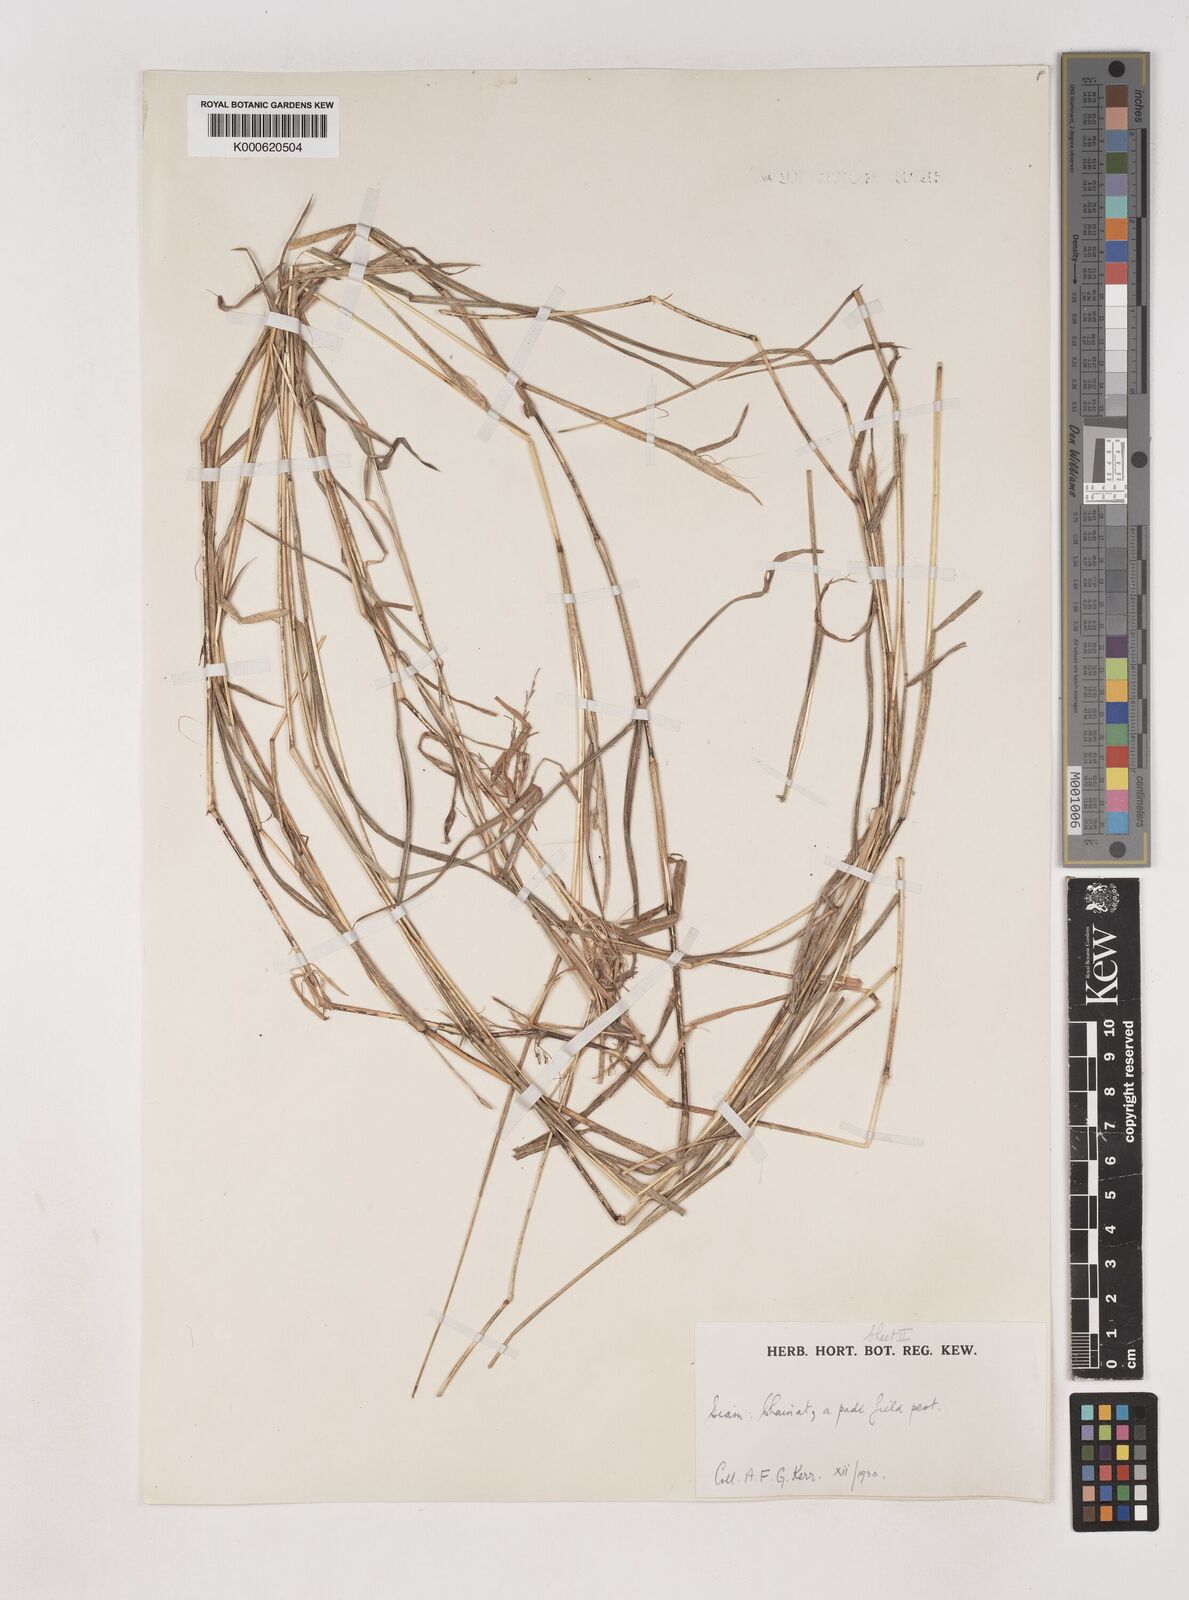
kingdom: Plantae
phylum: Tracheophyta
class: Liliopsida
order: Poales
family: Poaceae
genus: Dichanthium
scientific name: Dichanthium caricosum
